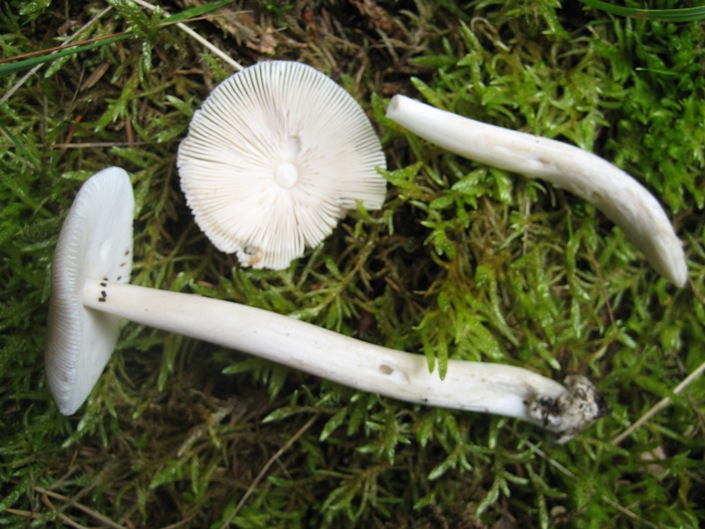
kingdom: Fungi
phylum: Basidiomycota
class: Agaricomycetes
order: Agaricales
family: Amanitaceae
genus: Amanita
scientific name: Amanita vaginata
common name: grå kam-fluesvamp
